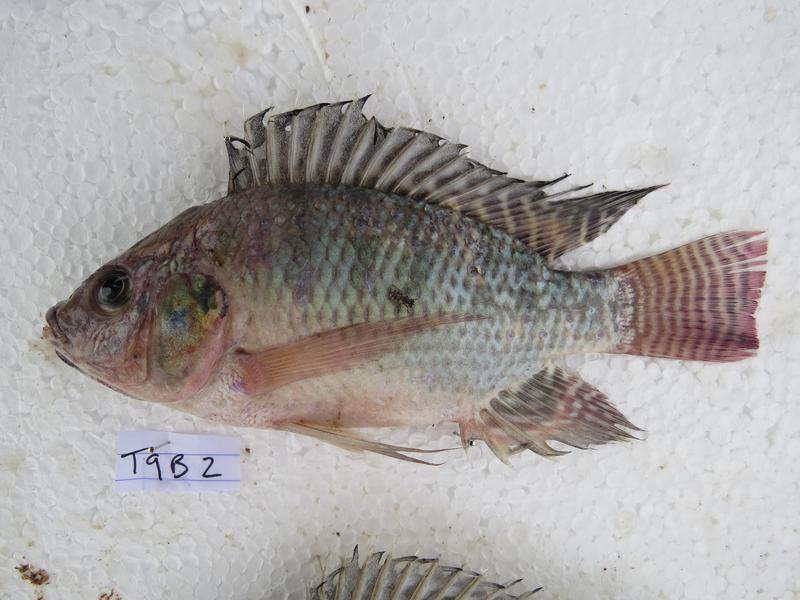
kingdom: Animalia
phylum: Chordata
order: Perciformes
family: Cichlidae
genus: Oreochromis
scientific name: Oreochromis niloticus
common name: Nile tilapia
